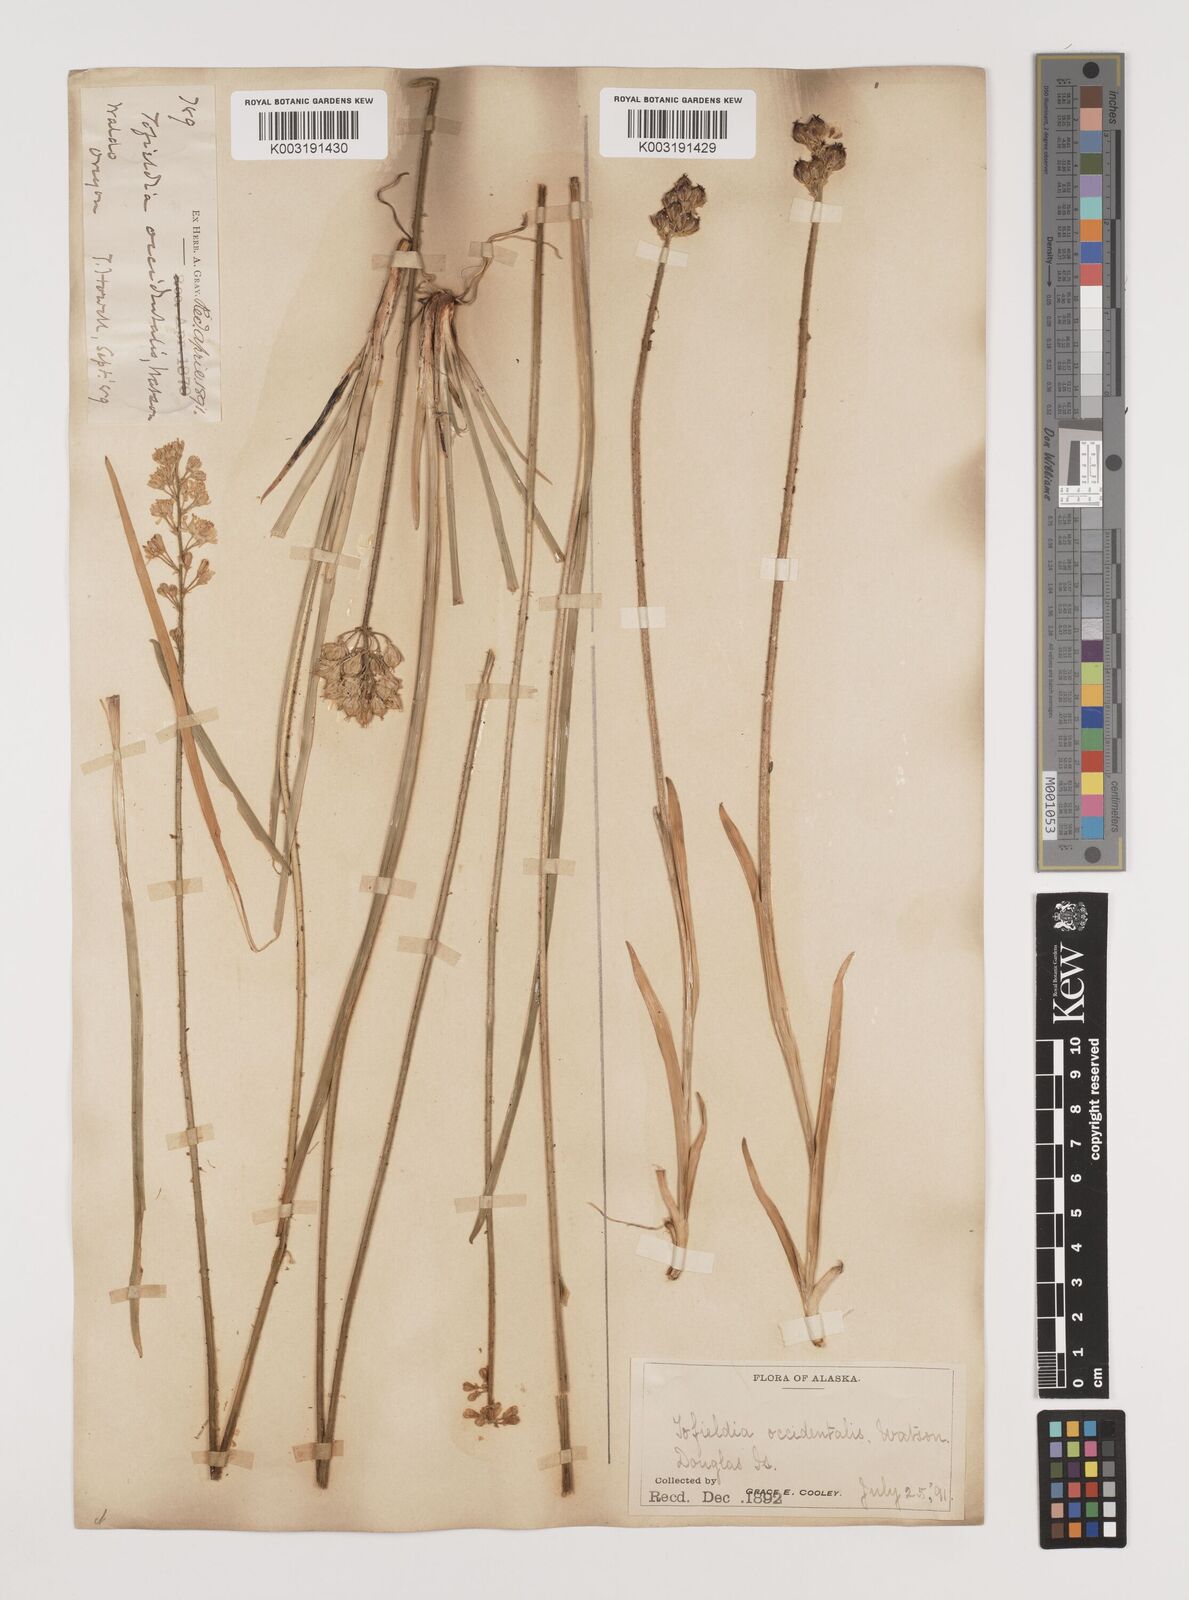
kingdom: Plantae
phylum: Tracheophyta
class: Liliopsida
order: Alismatales
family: Tofieldiaceae
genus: Triantha
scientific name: Triantha occidentalis
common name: Western false asphodel
